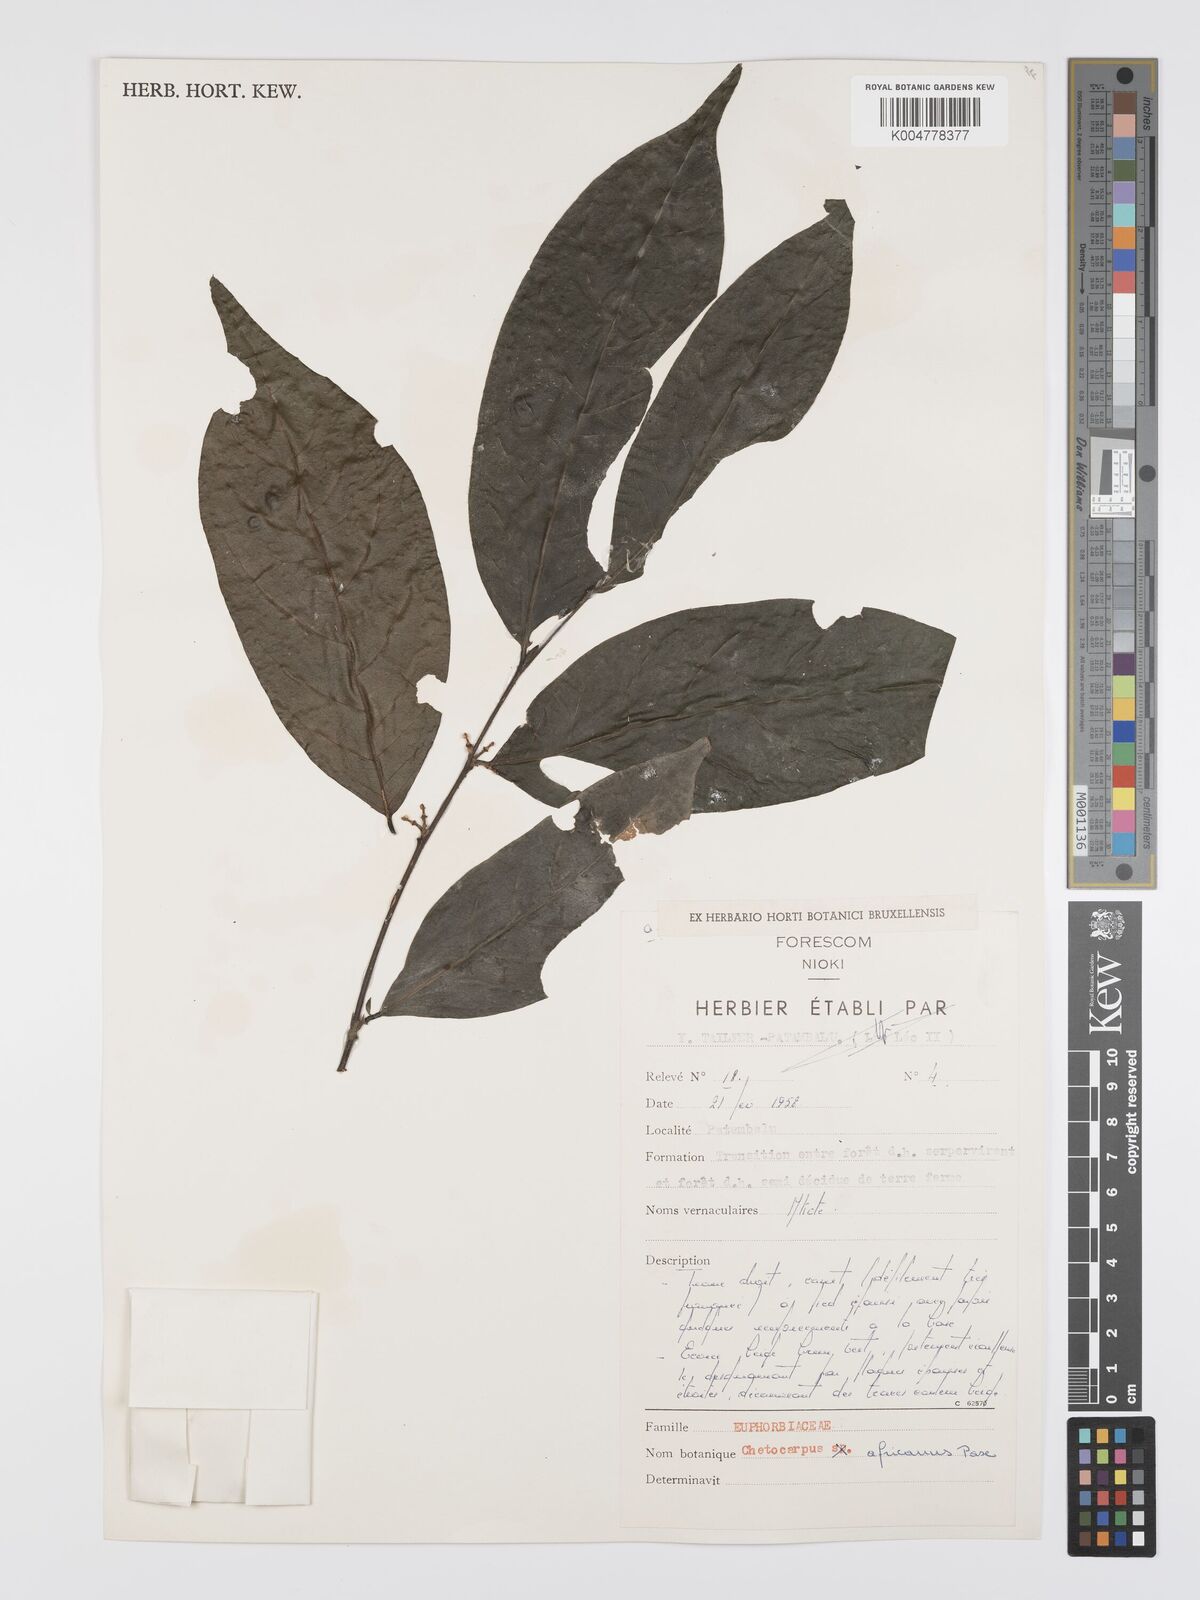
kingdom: Plantae
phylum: Tracheophyta
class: Magnoliopsida
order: Malpighiales
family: Peraceae
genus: Chaetocarpus
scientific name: Chaetocarpus africanus
